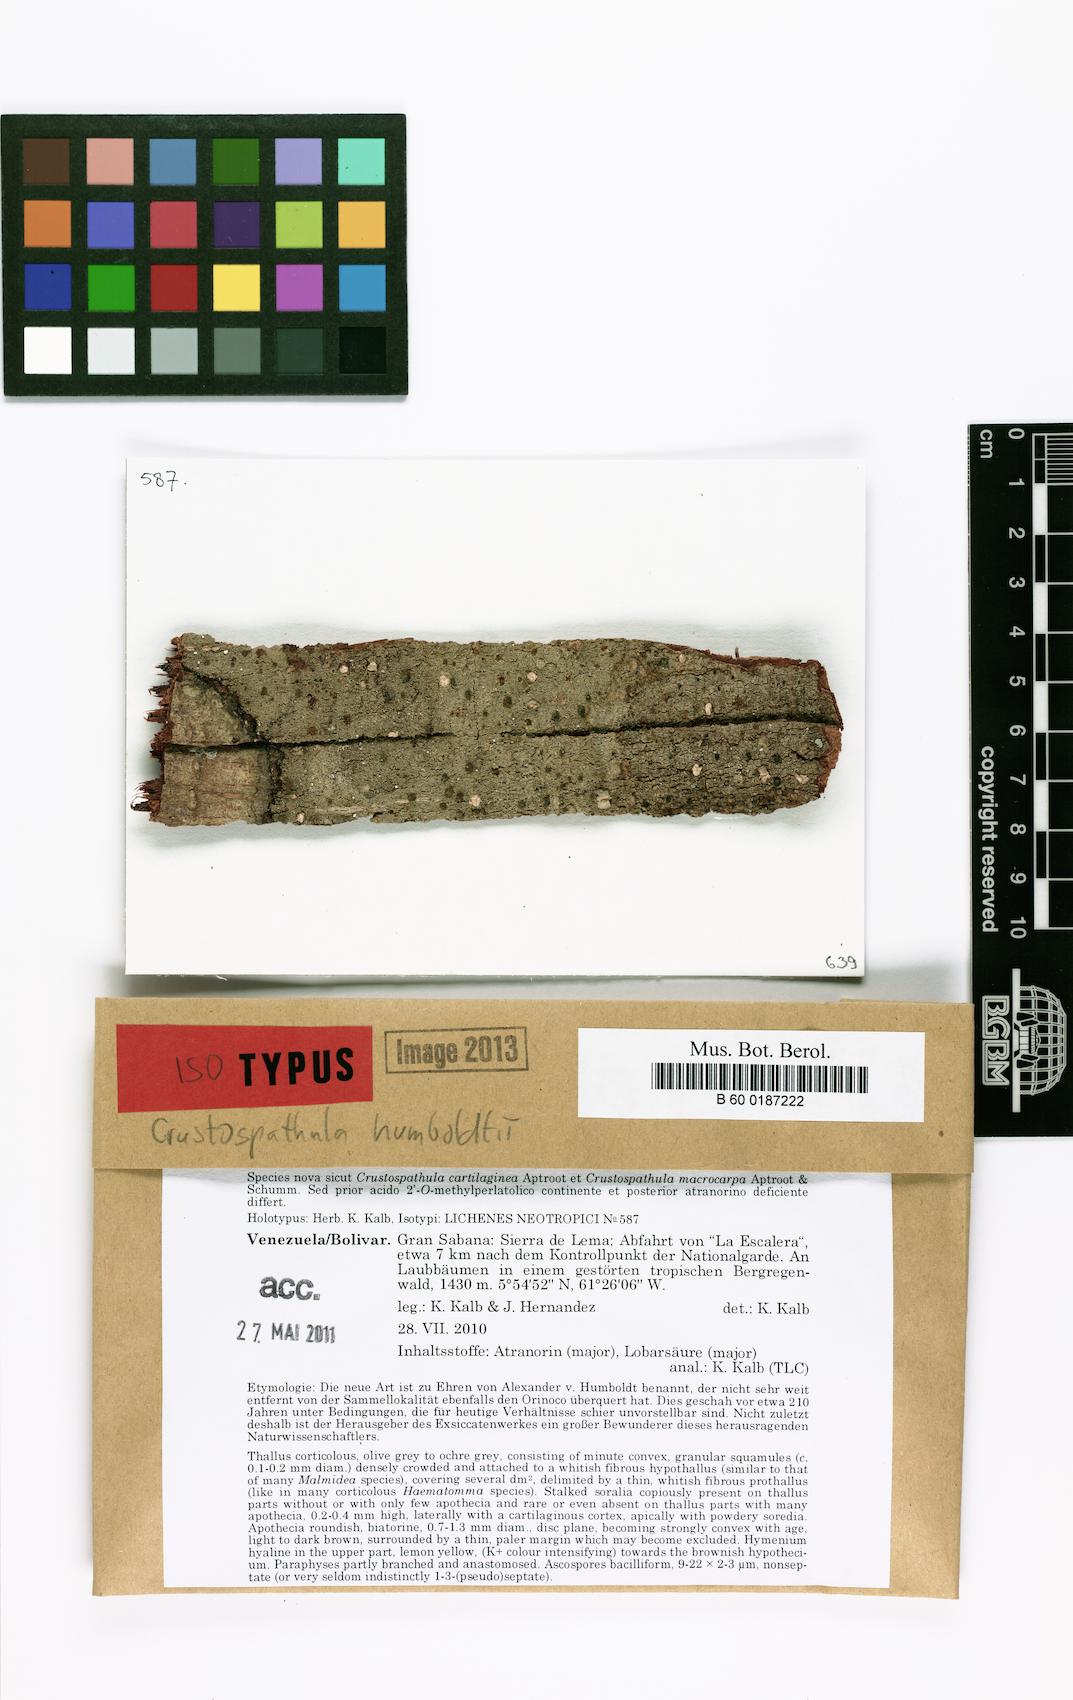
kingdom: Fungi
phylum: Ascomycota
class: Lecanoromycetes
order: Lecanorales
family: Ramalinaceae
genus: Crustospathula
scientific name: Crustospathula humboldtii
